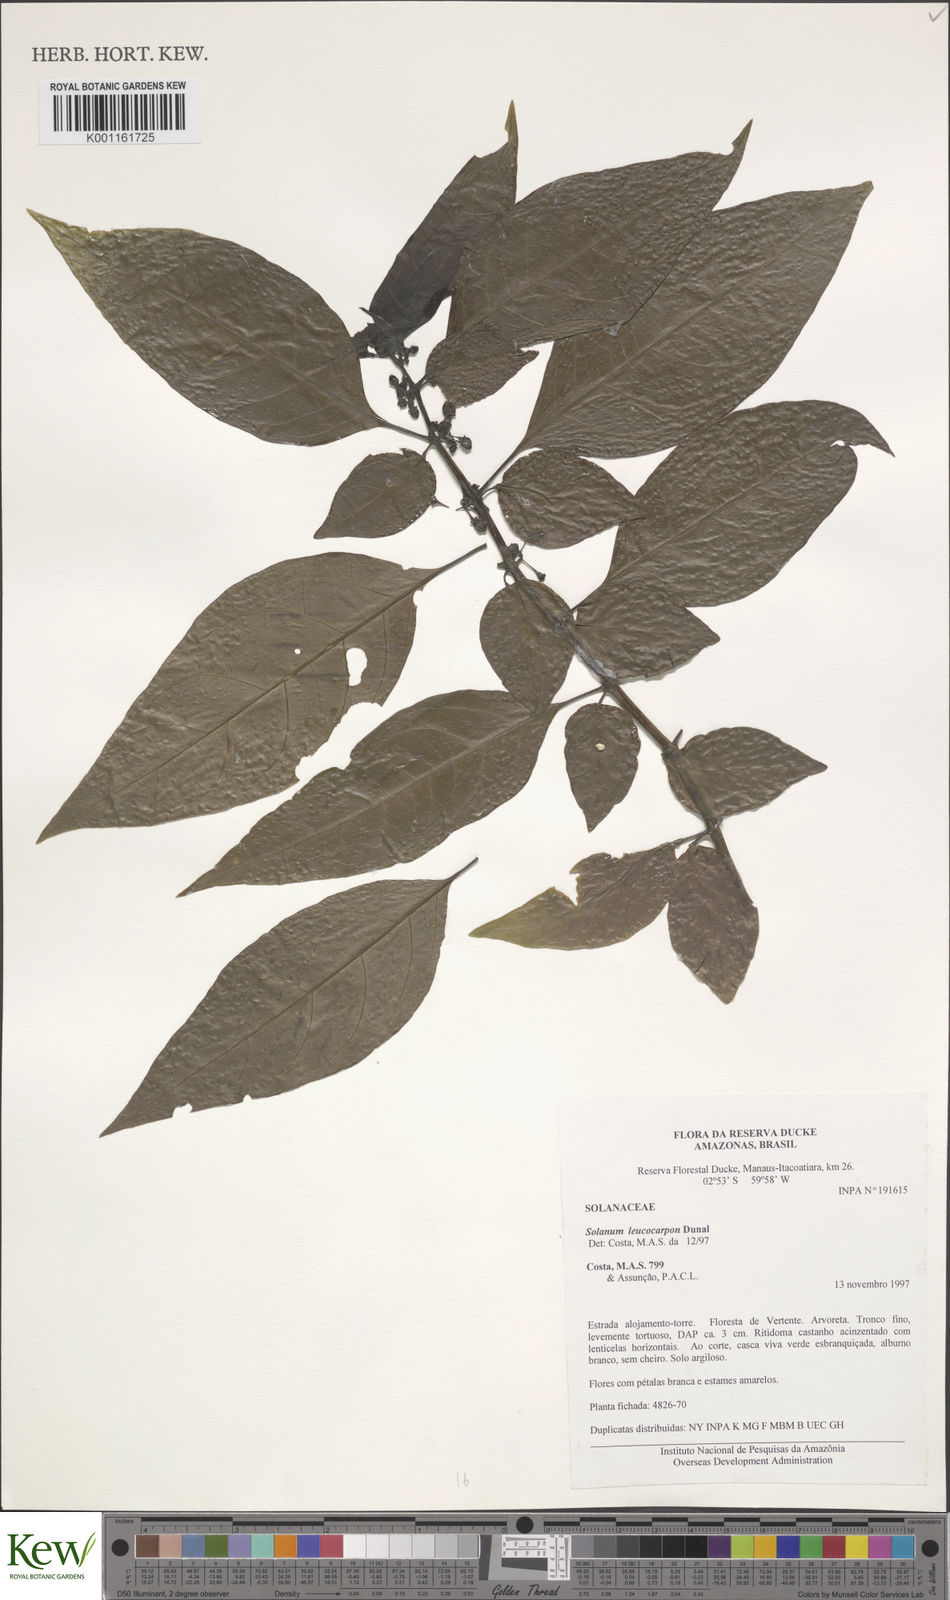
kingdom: Plantae
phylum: Tracheophyta
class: Magnoliopsida
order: Solanales
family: Solanaceae
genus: Solanum
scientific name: Solanum leucocarpon
